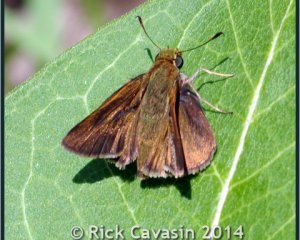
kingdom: Animalia
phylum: Arthropoda
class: Insecta
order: Lepidoptera
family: Hesperiidae
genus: Euphyes
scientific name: Euphyes vestris
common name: Dun Skipper
